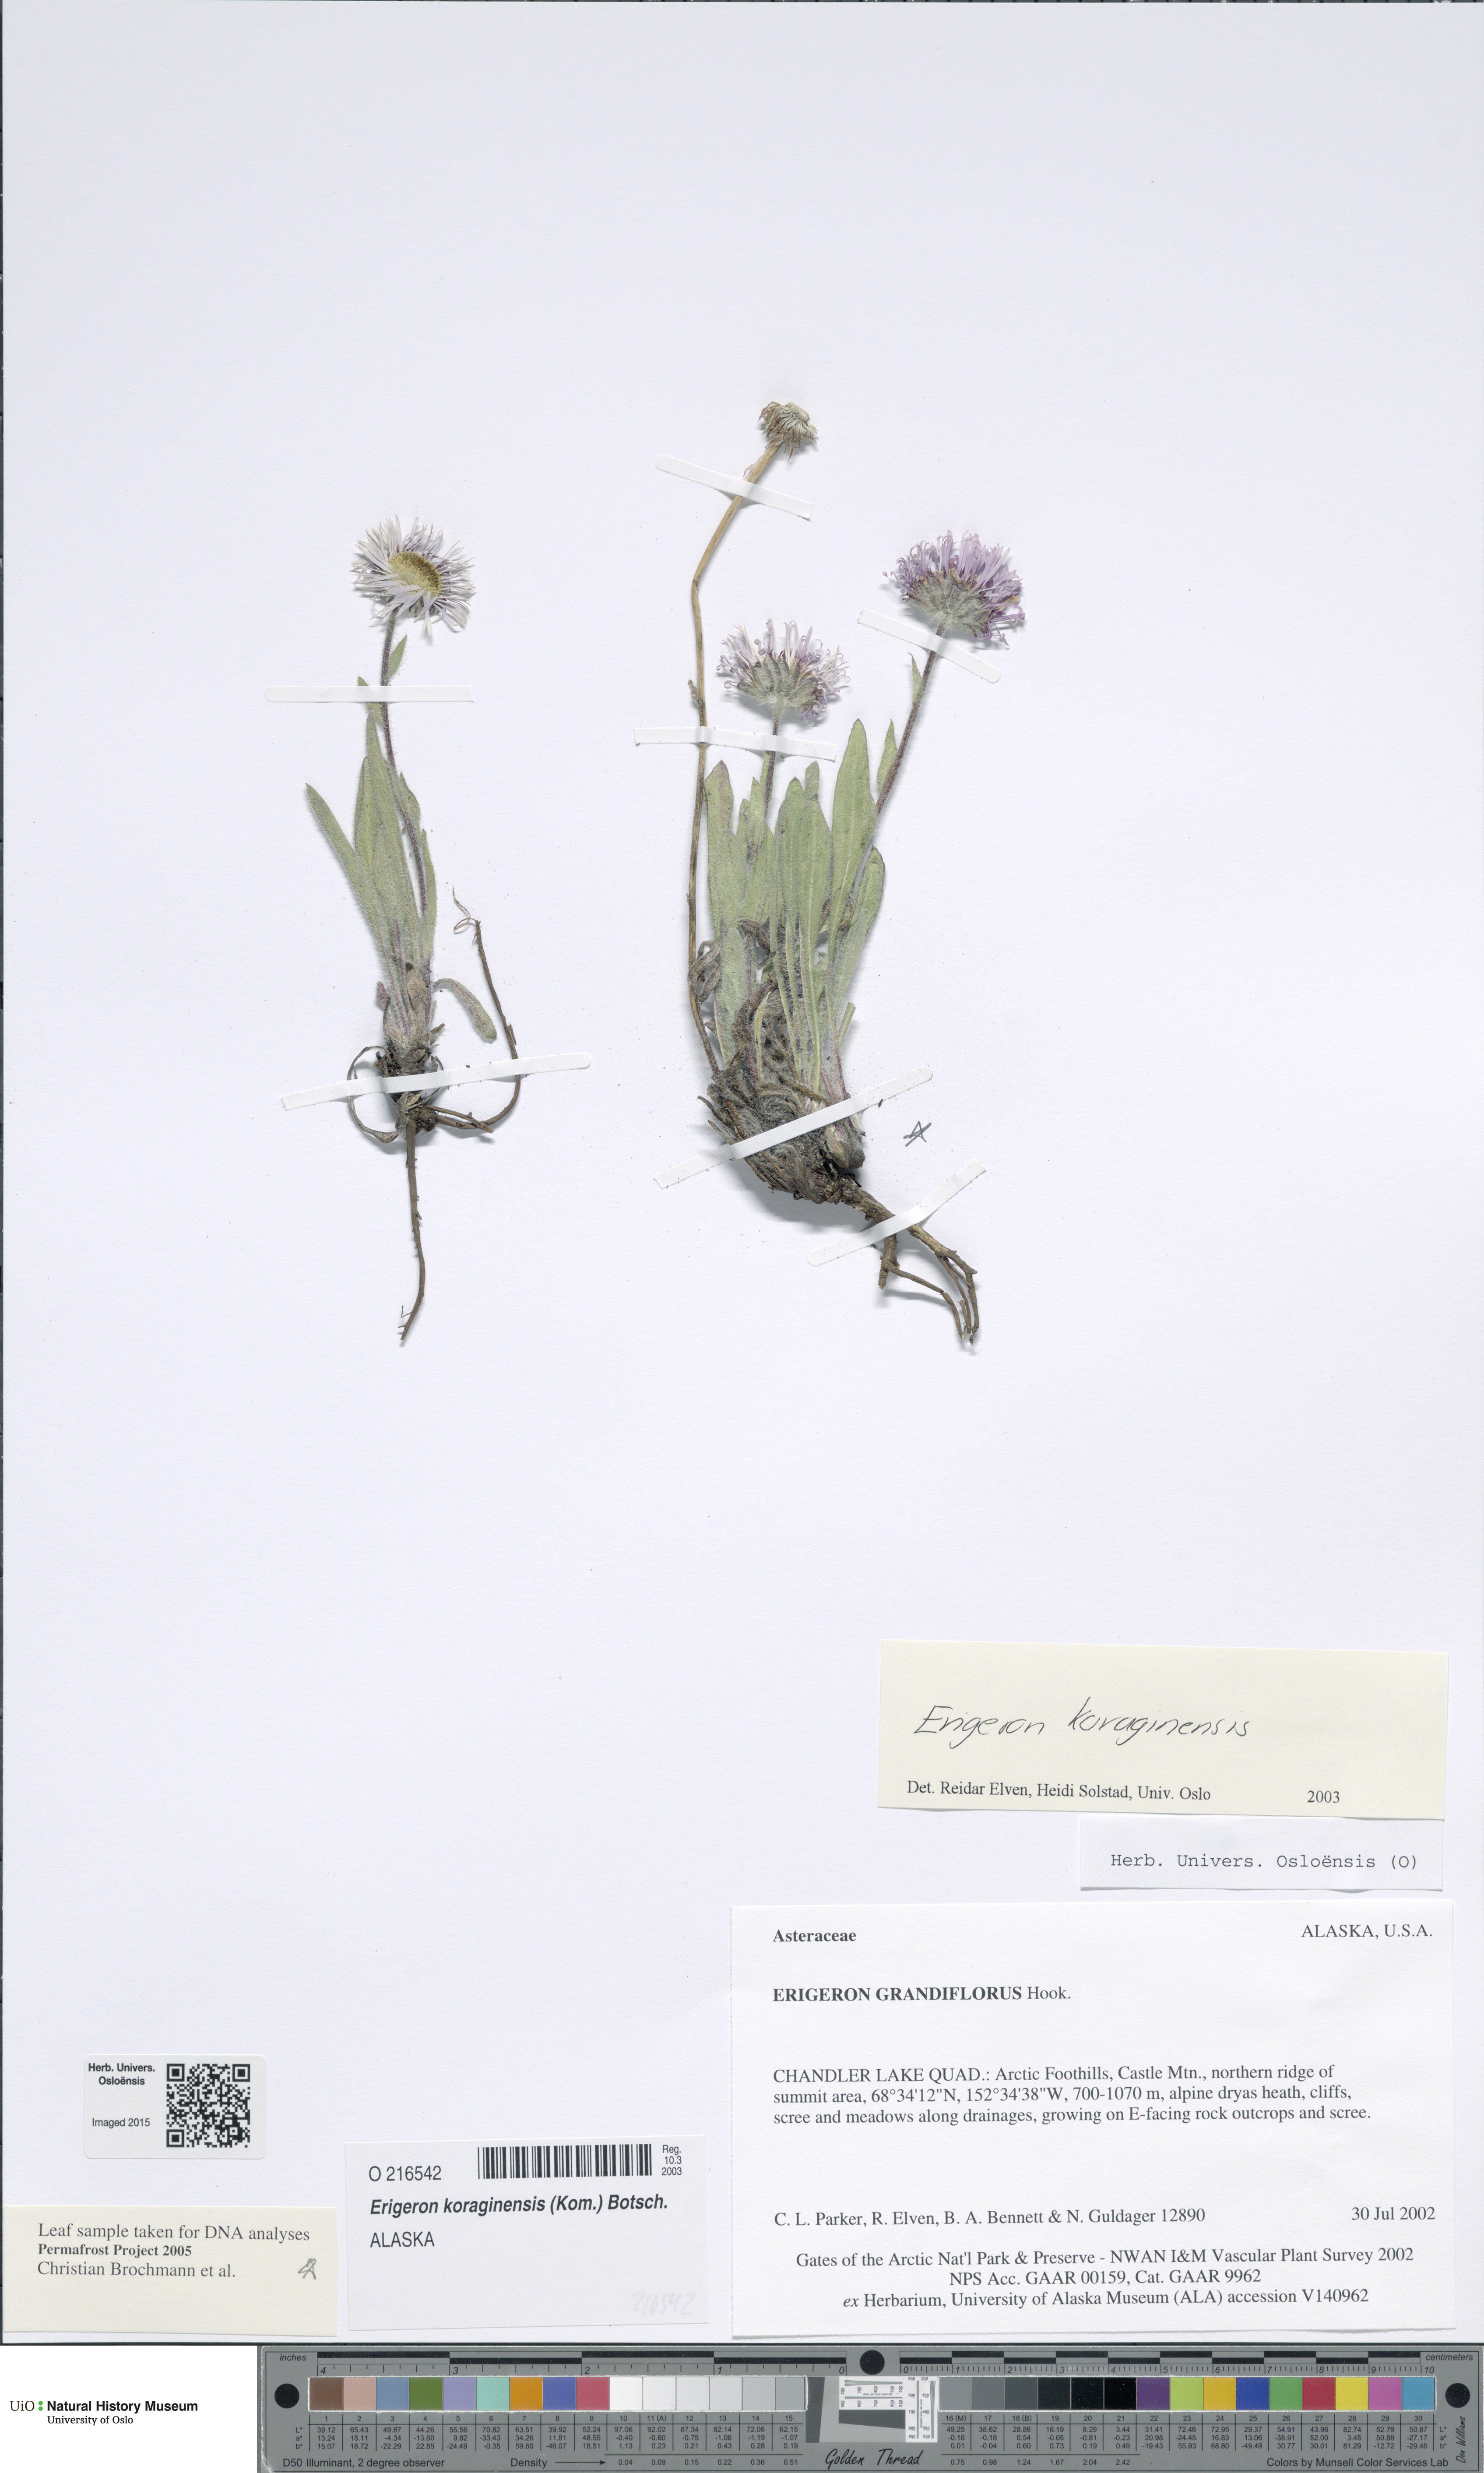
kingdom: Plantae
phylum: Tracheophyta
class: Magnoliopsida
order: Asterales
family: Asteraceae
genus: Erigeron
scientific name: Erigeron alpicola
